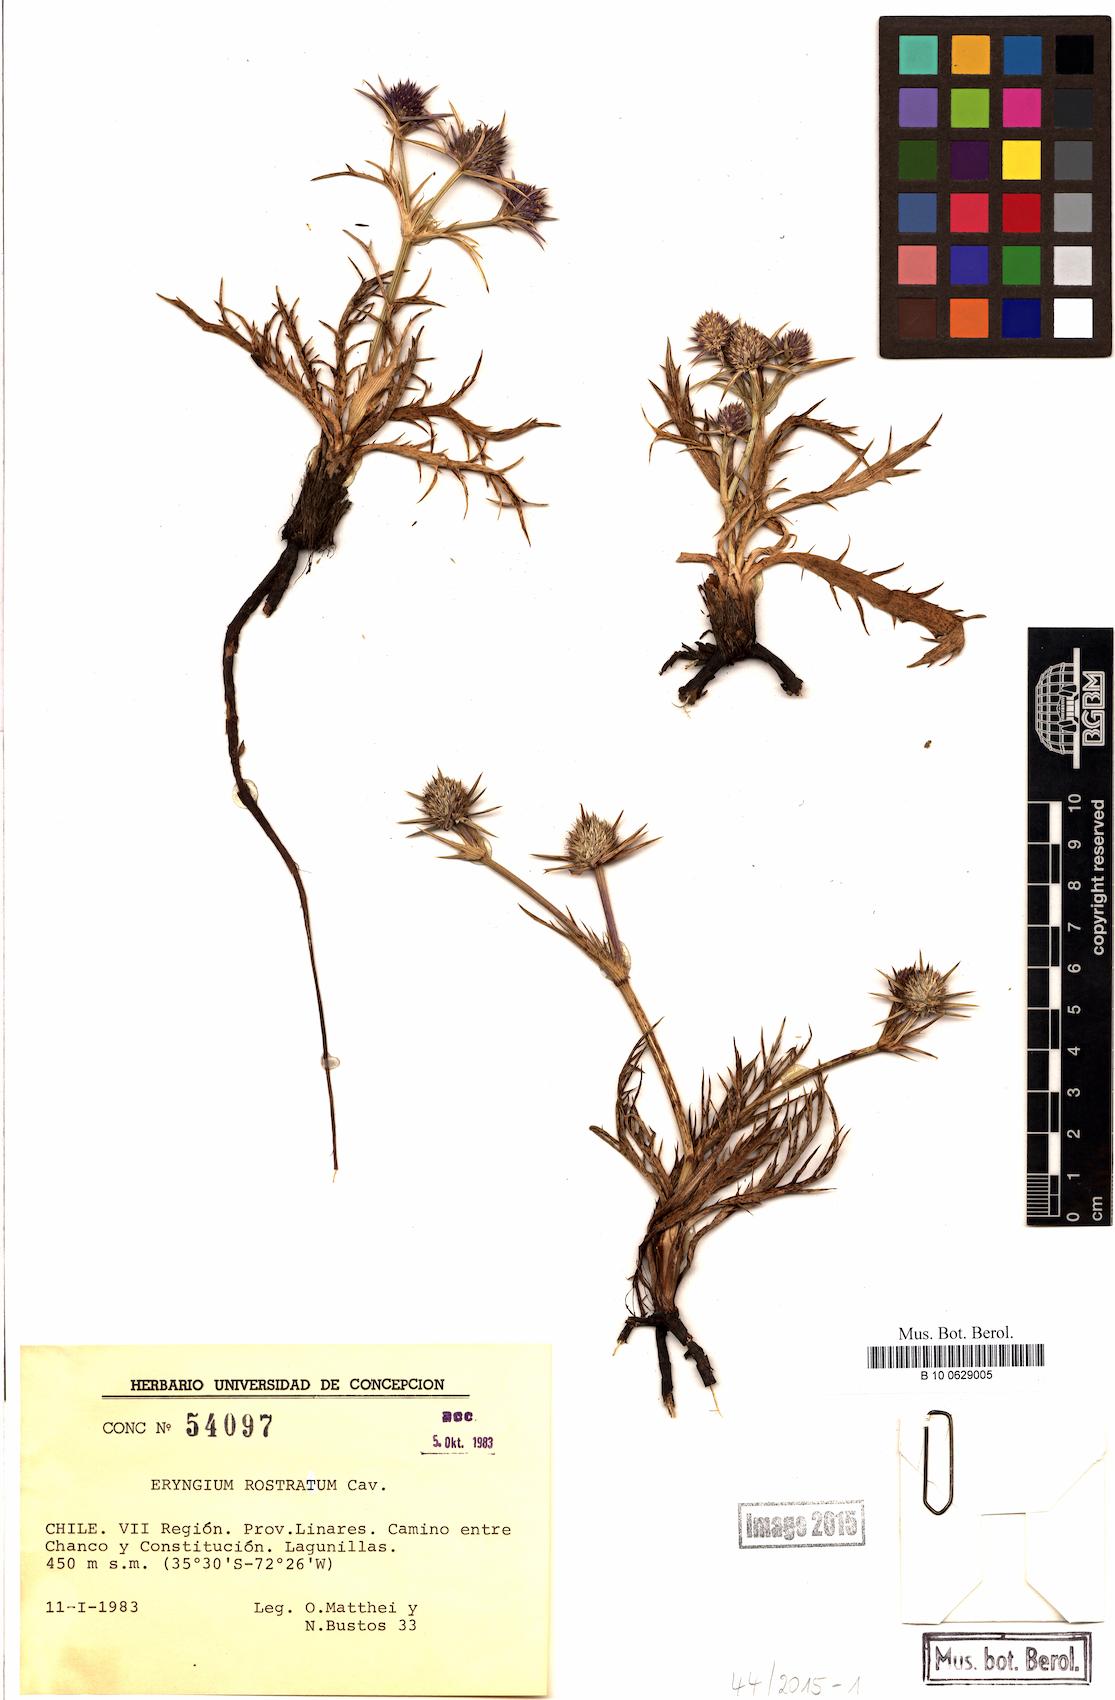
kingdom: Plantae
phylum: Tracheophyta
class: Magnoliopsida
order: Apiales
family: Apiaceae
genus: Eryngium
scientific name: Eryngium rostratum
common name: Blue eryngo
